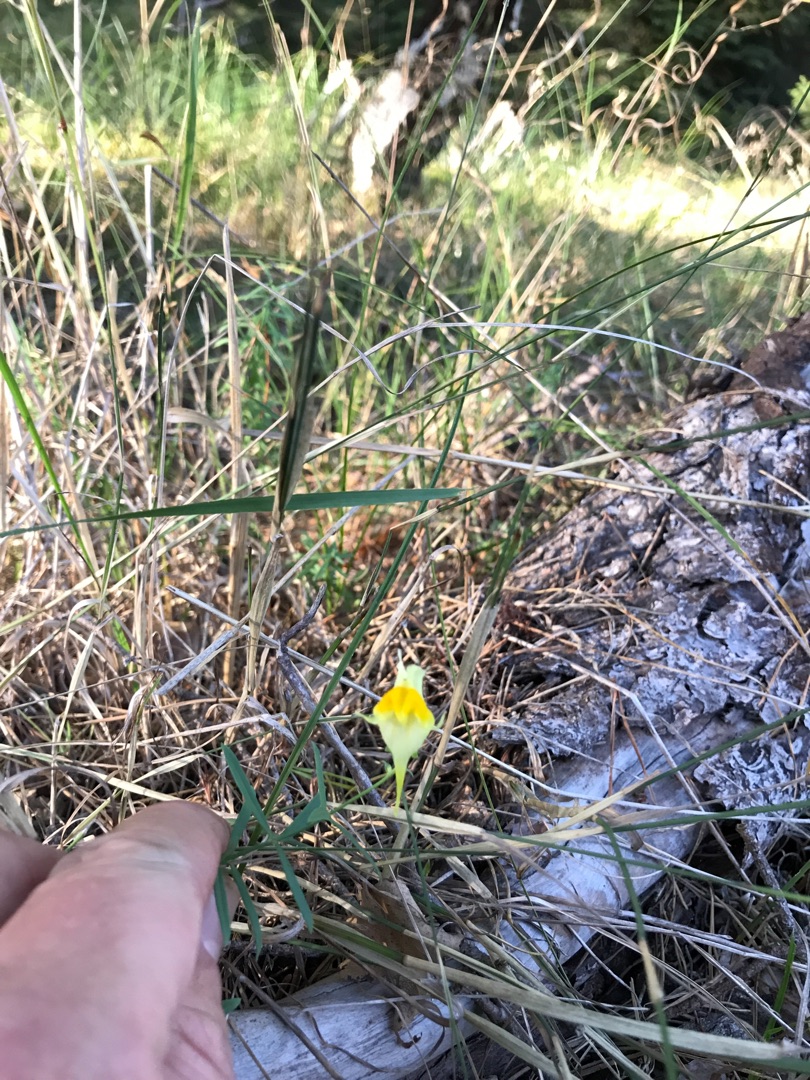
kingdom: Plantae
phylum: Tracheophyta
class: Magnoliopsida
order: Lamiales
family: Plantaginaceae
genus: Linaria
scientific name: Linaria vulgaris
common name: Almindelig torskemund
